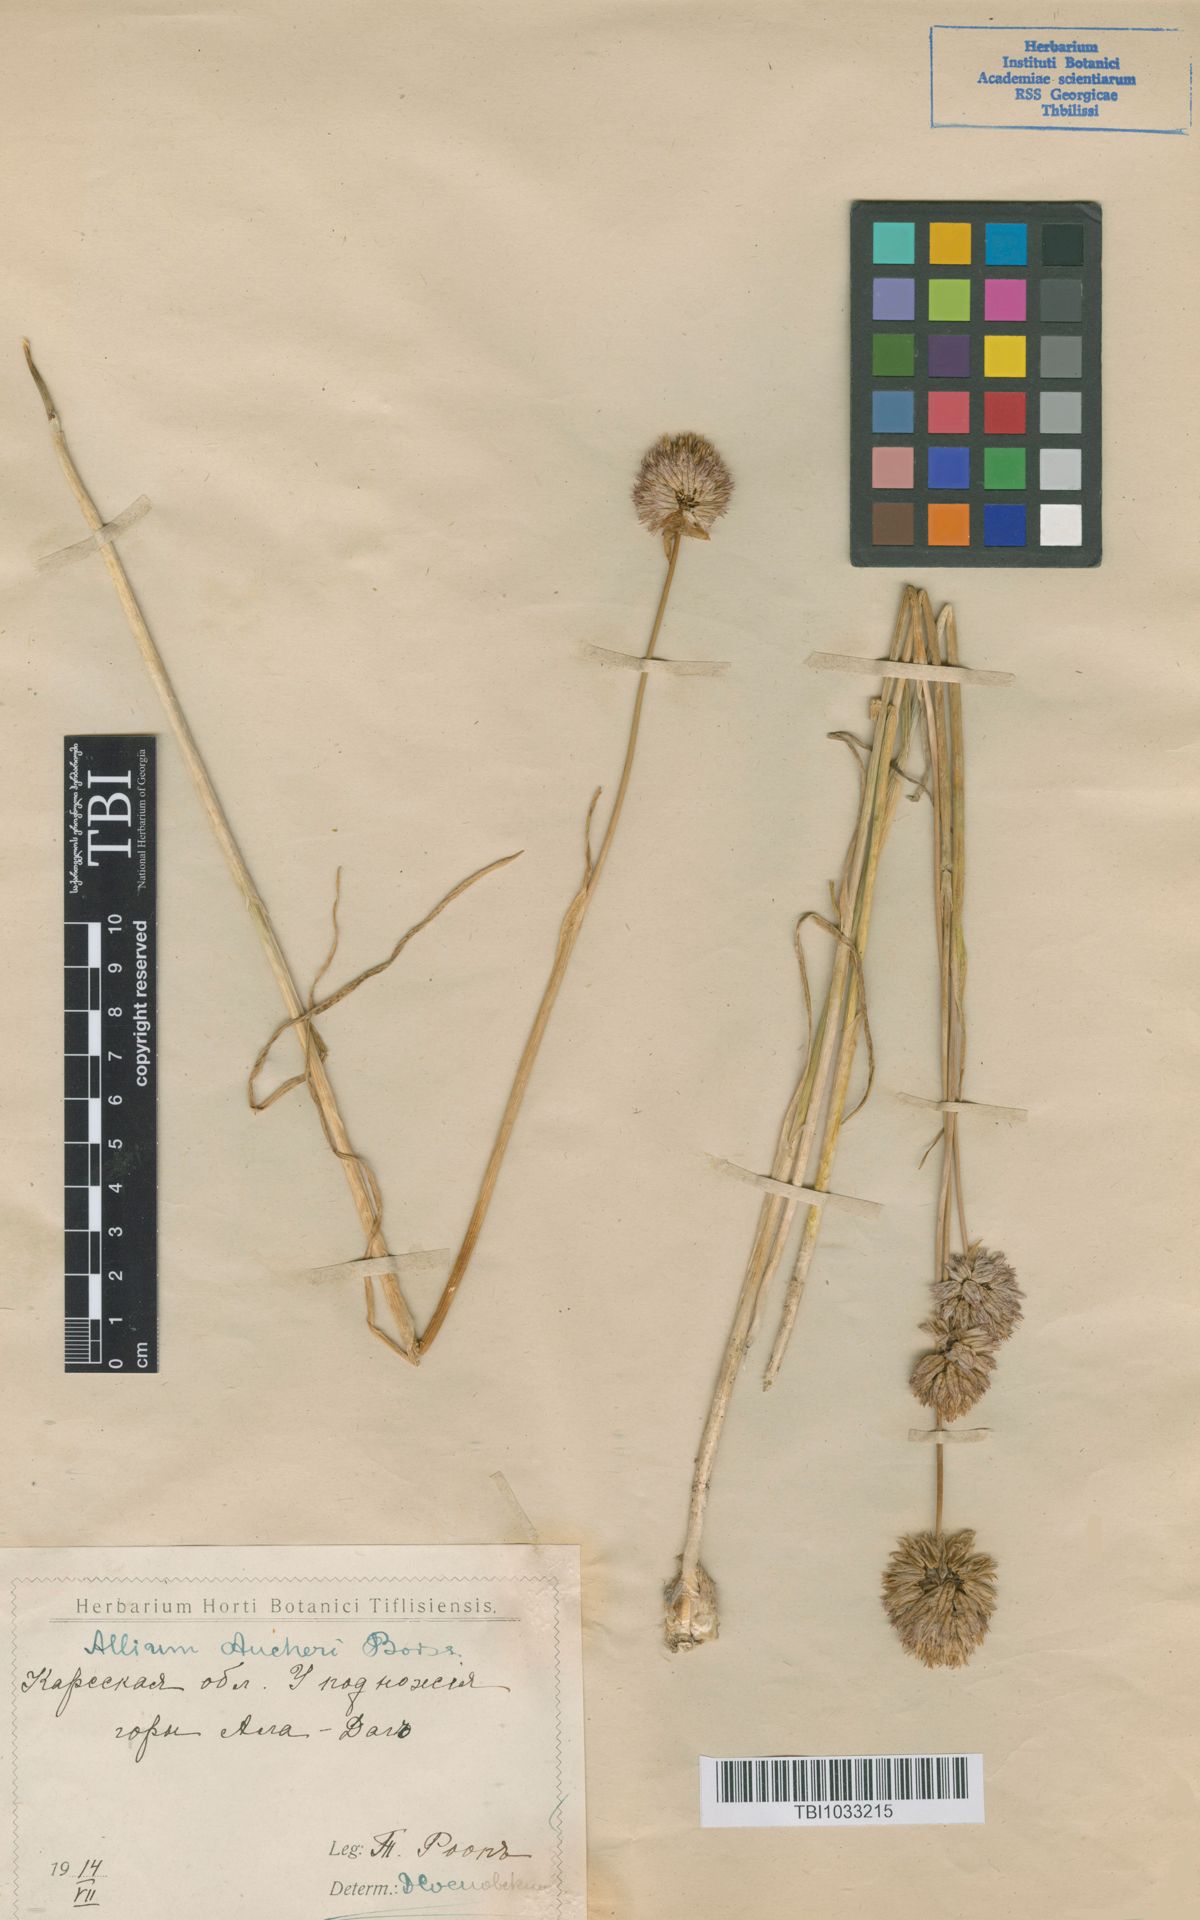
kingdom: Plantae
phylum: Tracheophyta
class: Liliopsida
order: Asparagales
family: Amaryllidaceae
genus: Allium
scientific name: Allium aucheri
